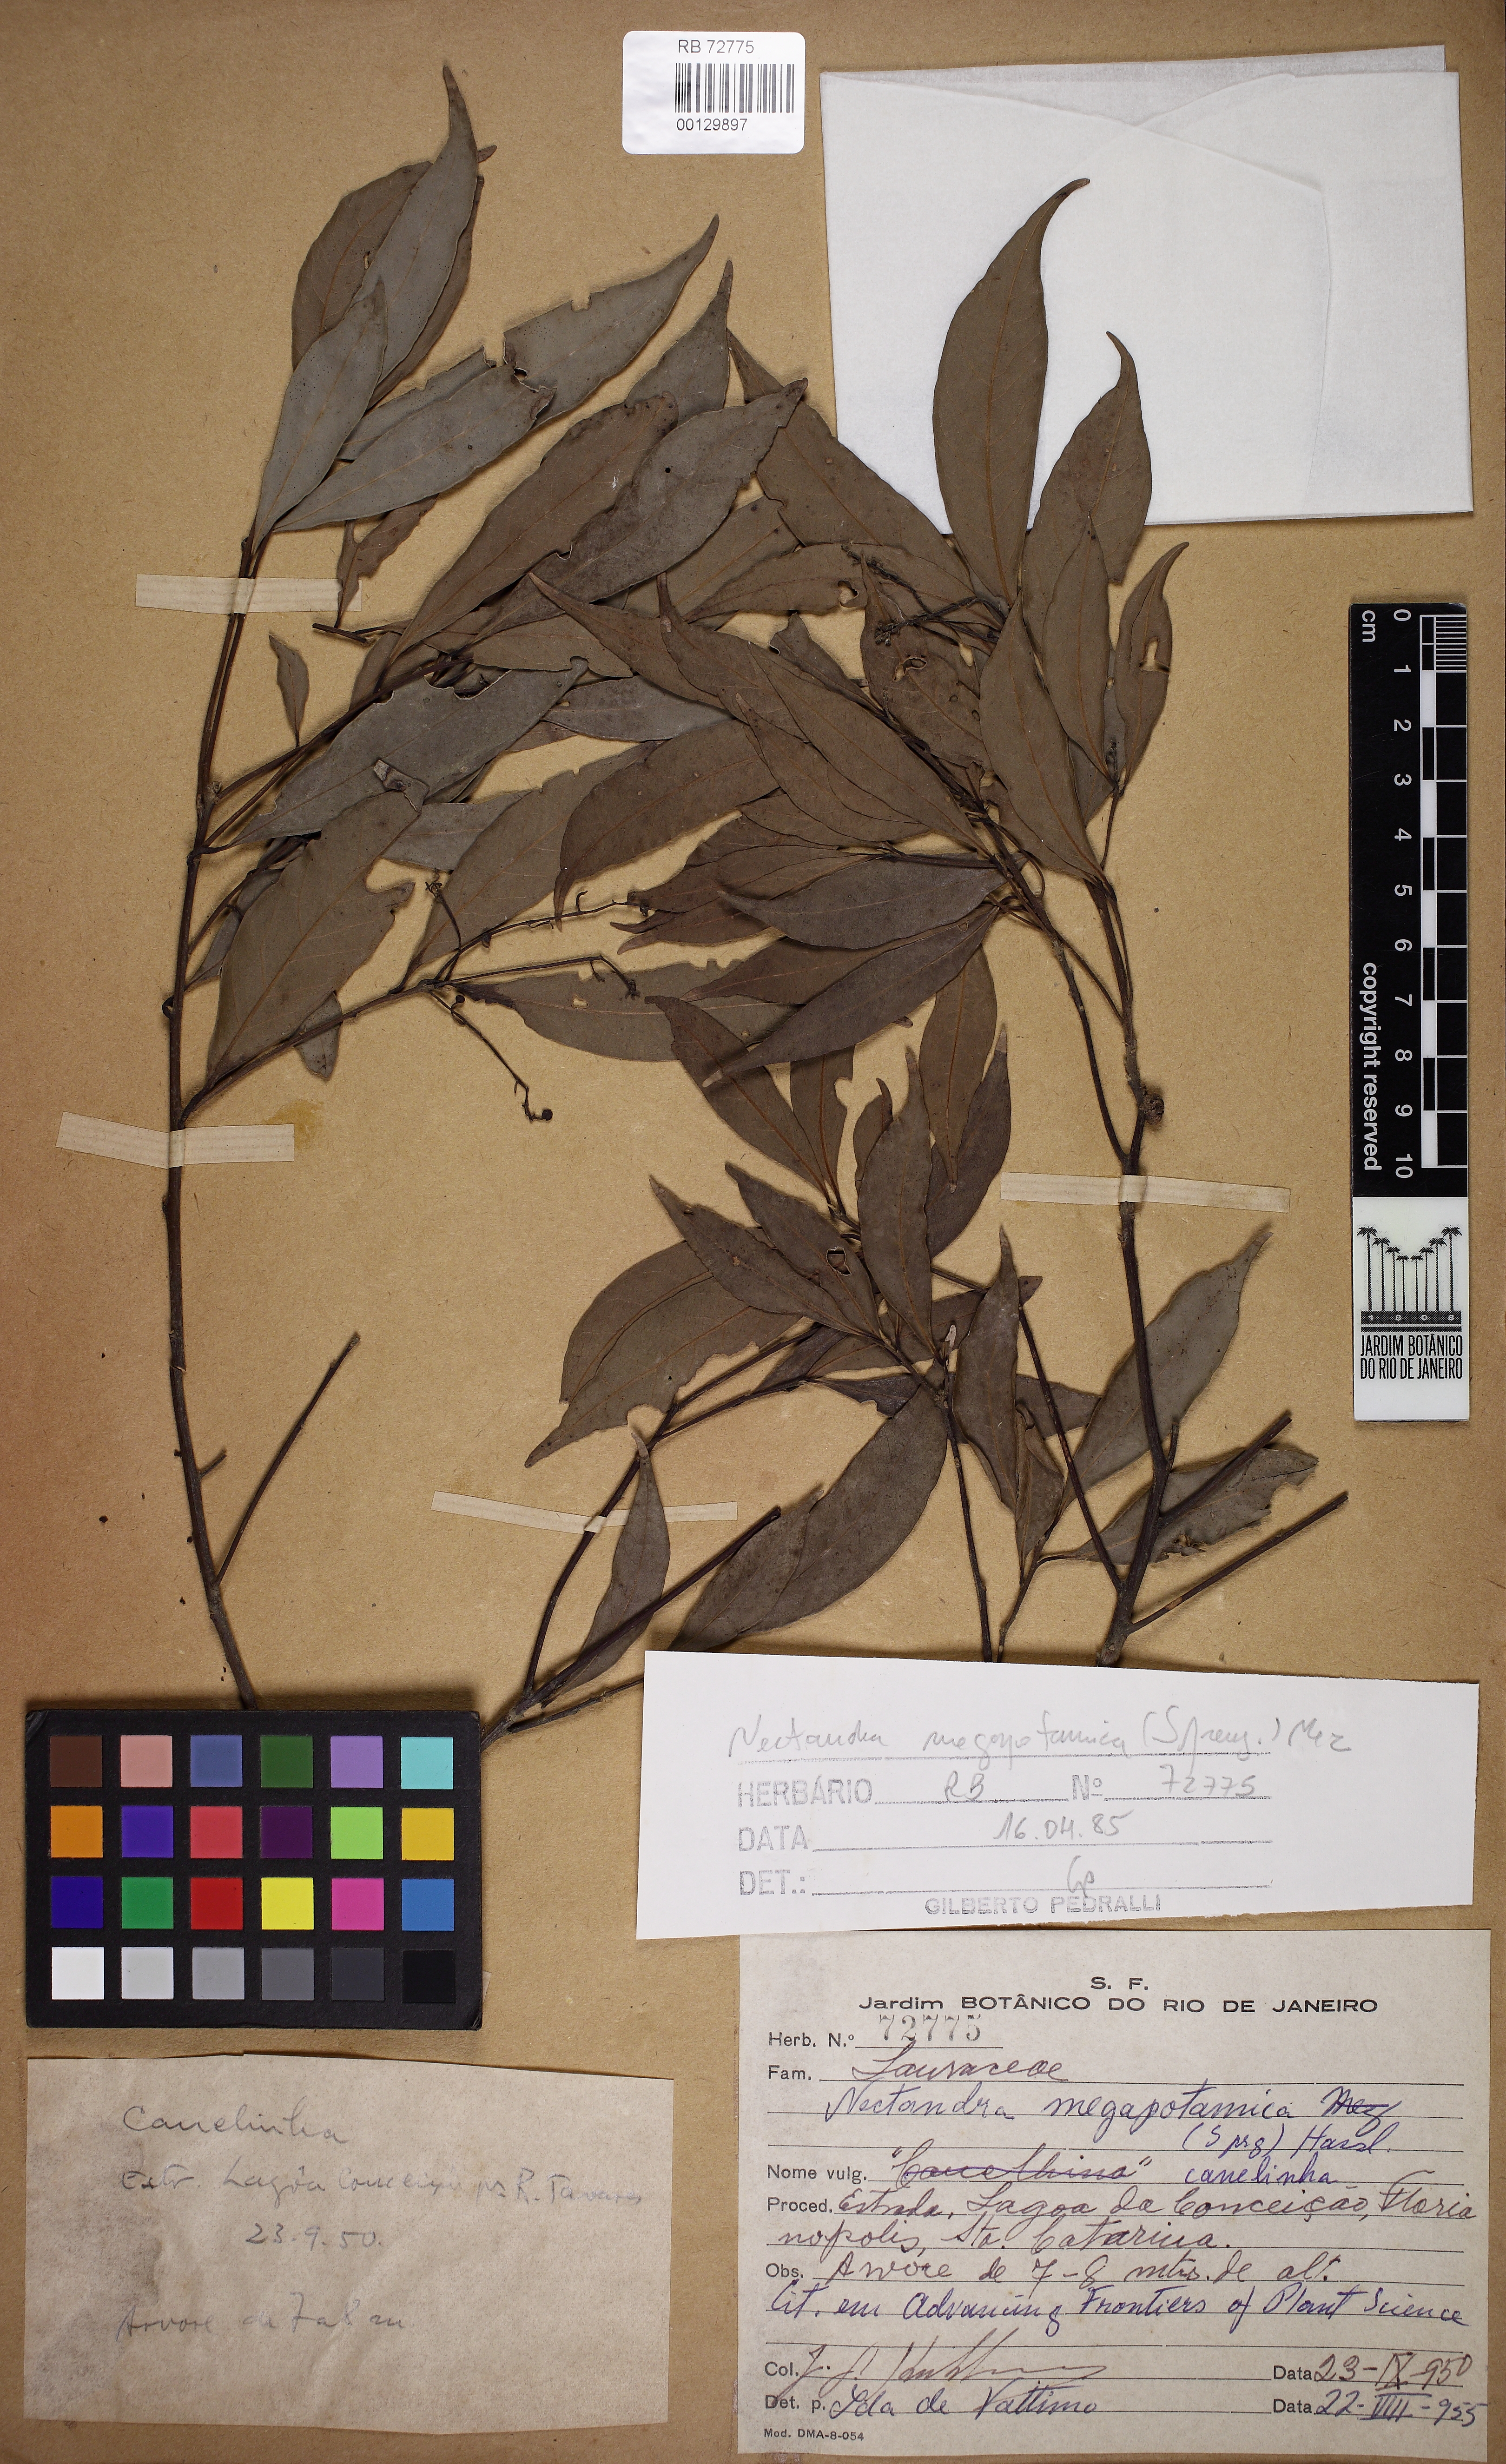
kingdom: Plantae
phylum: Tracheophyta
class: Magnoliopsida
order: Laurales
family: Lauraceae
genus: Nectandra
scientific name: Nectandra megapotamica
